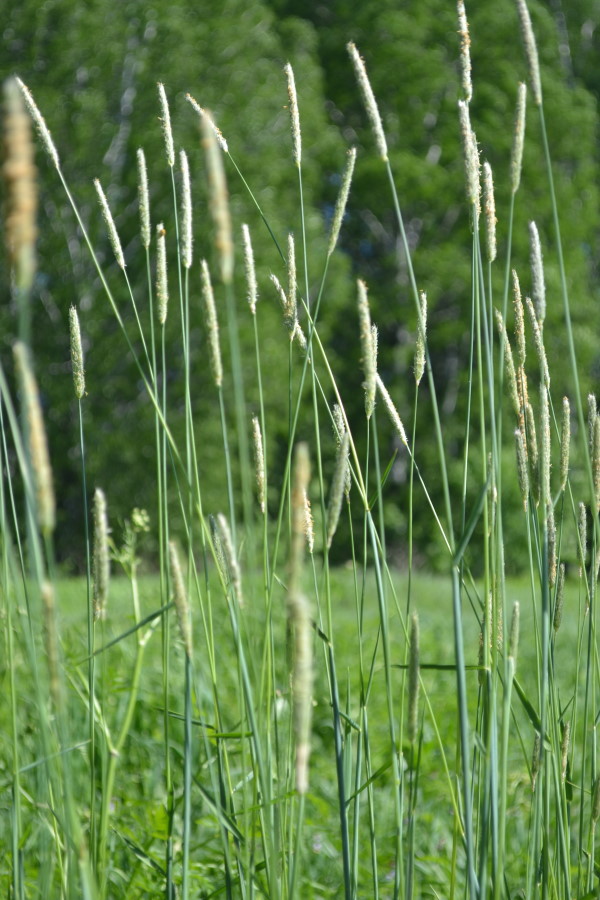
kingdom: Plantae
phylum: Tracheophyta
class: Liliopsida
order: Poales
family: Poaceae
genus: Alopecurus
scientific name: Alopecurus pratensis
